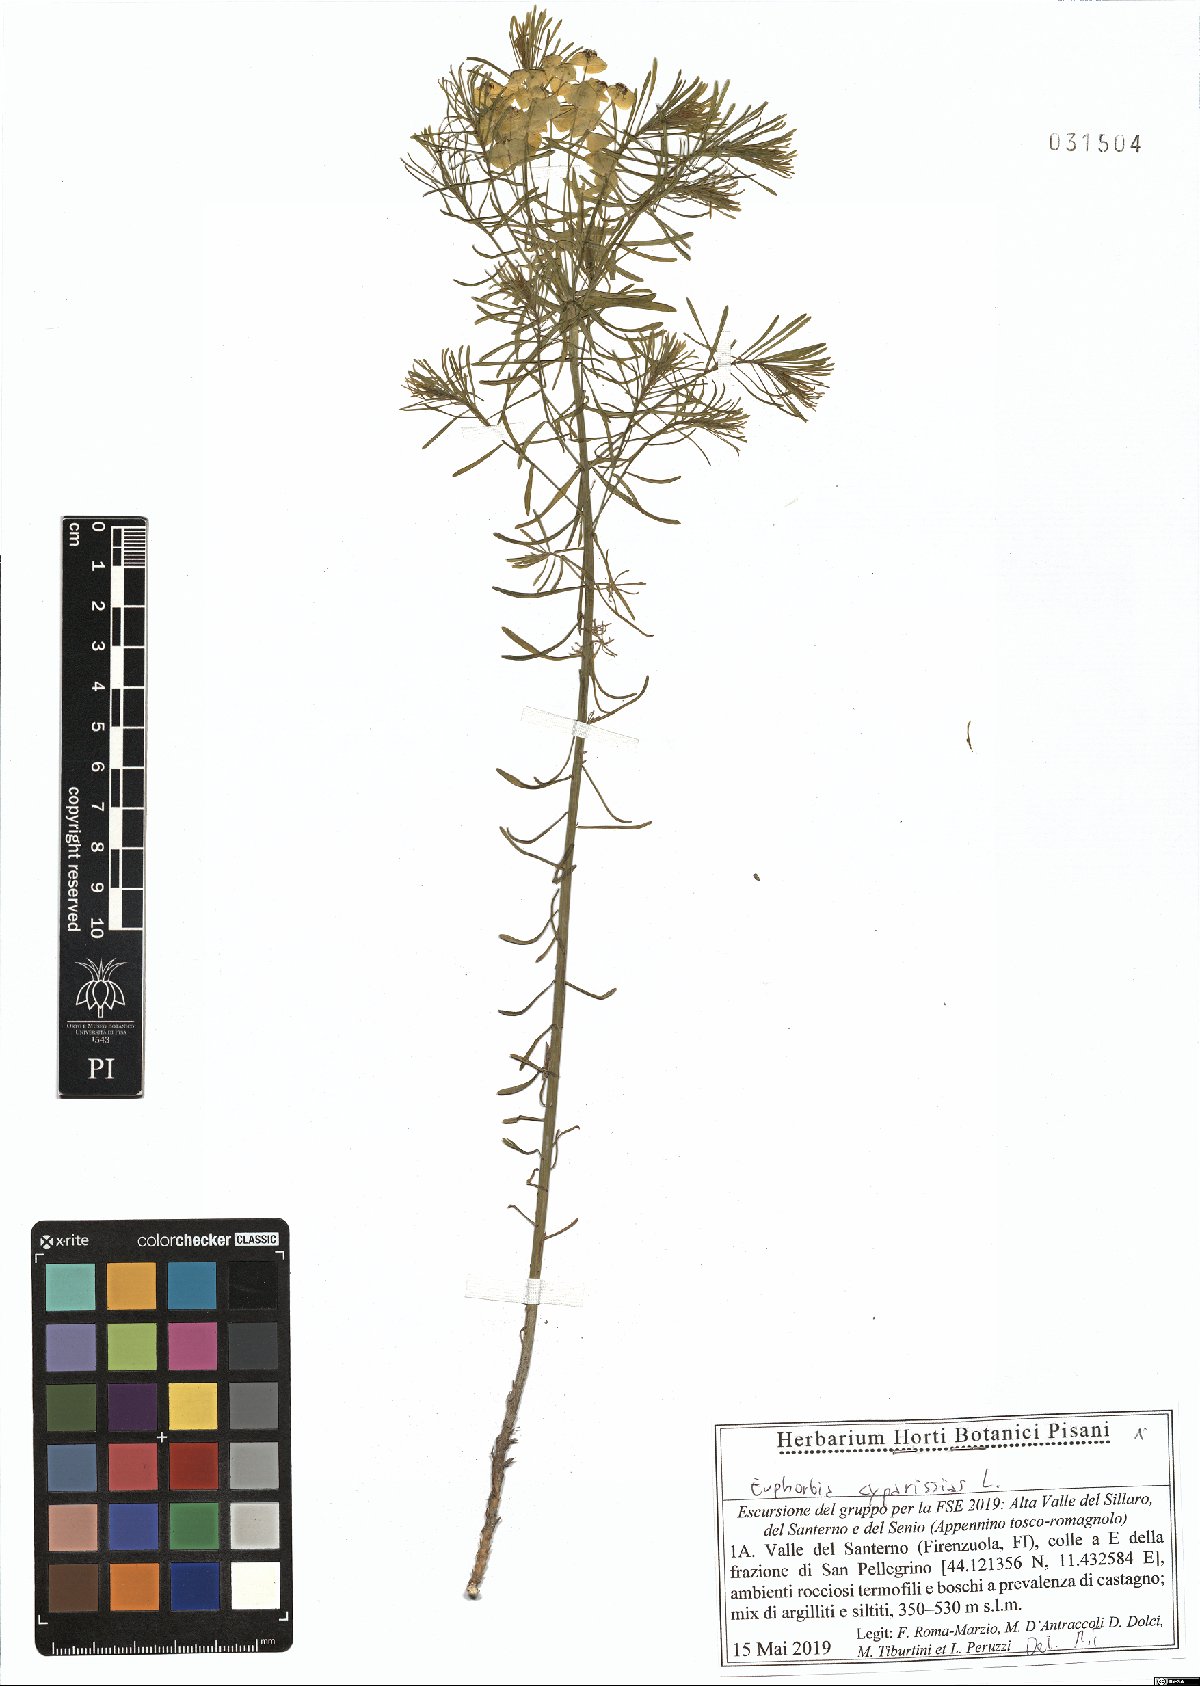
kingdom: Plantae
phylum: Tracheophyta
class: Magnoliopsida
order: Malpighiales
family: Euphorbiaceae
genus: Euphorbia
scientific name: Euphorbia cyparissias
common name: Cypress spurge
